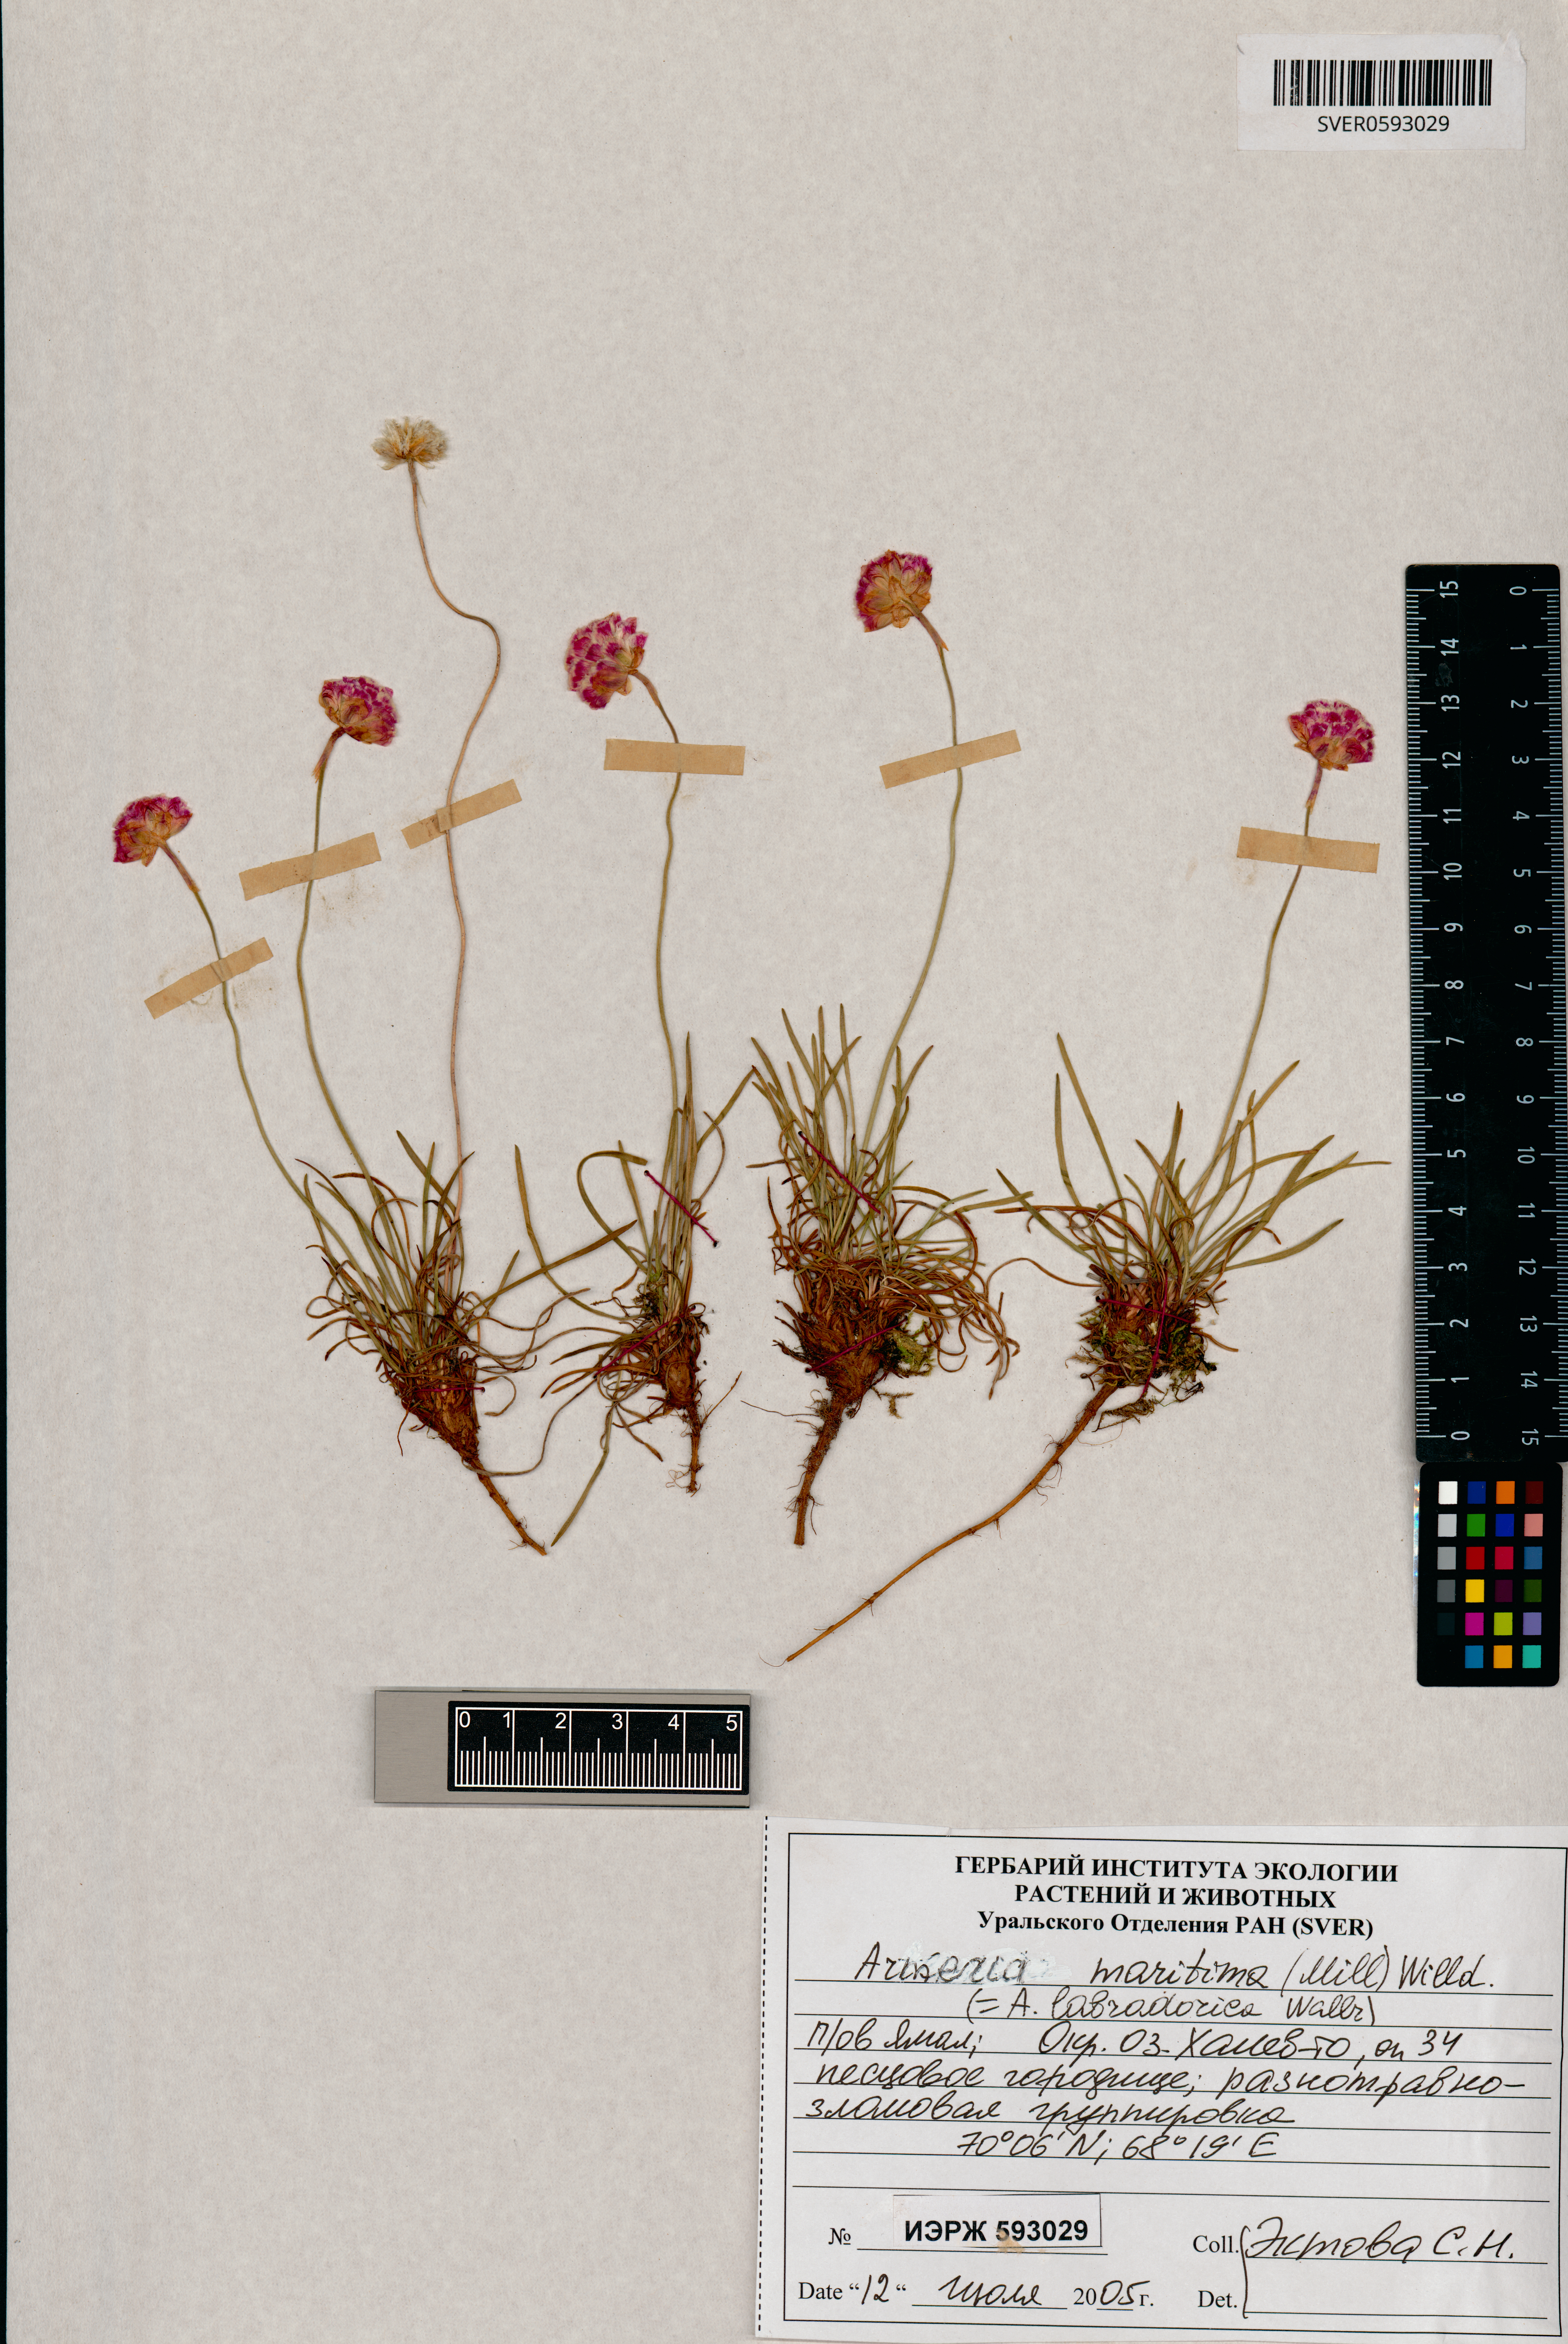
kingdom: Plantae
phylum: Tracheophyta
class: Magnoliopsida
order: Caryophyllales
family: Plumbaginaceae
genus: Armeria
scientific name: Armeria maritima
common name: Thrift
